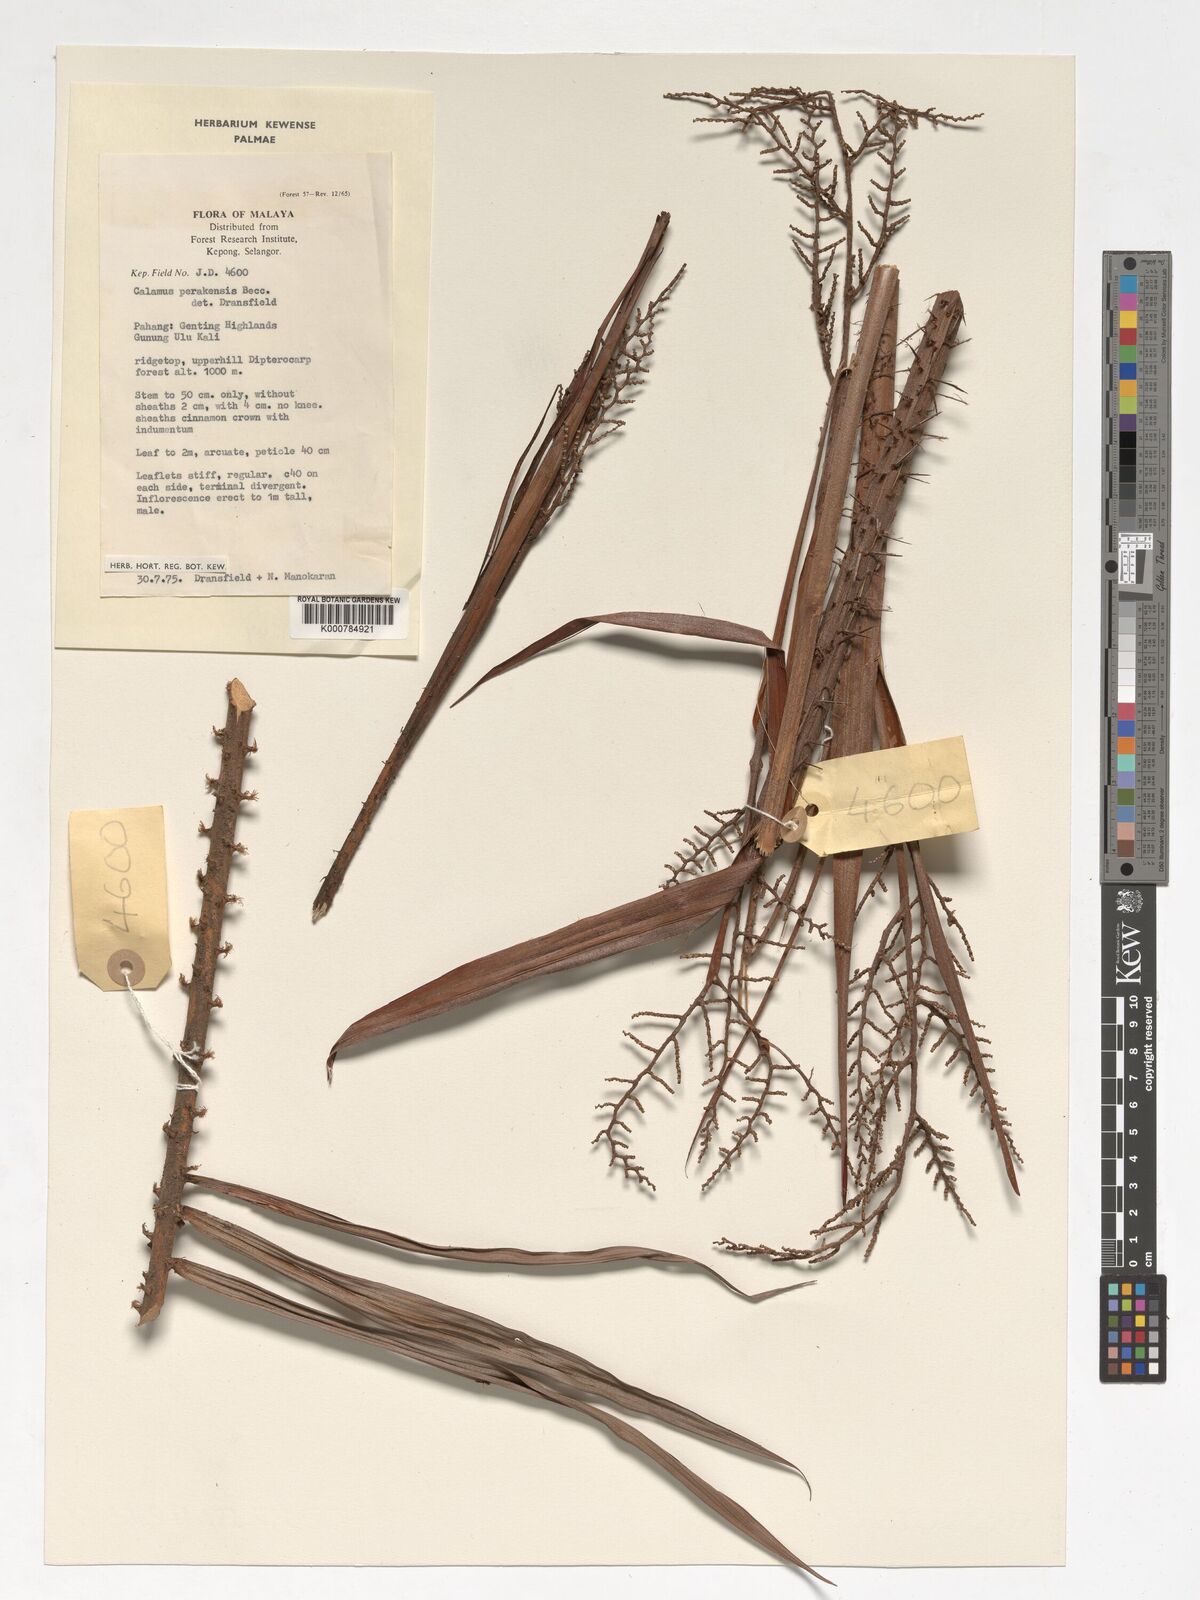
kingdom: Plantae
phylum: Tracheophyta
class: Liliopsida
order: Arecales
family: Arecaceae
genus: Calamus
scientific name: Calamus perakensis
